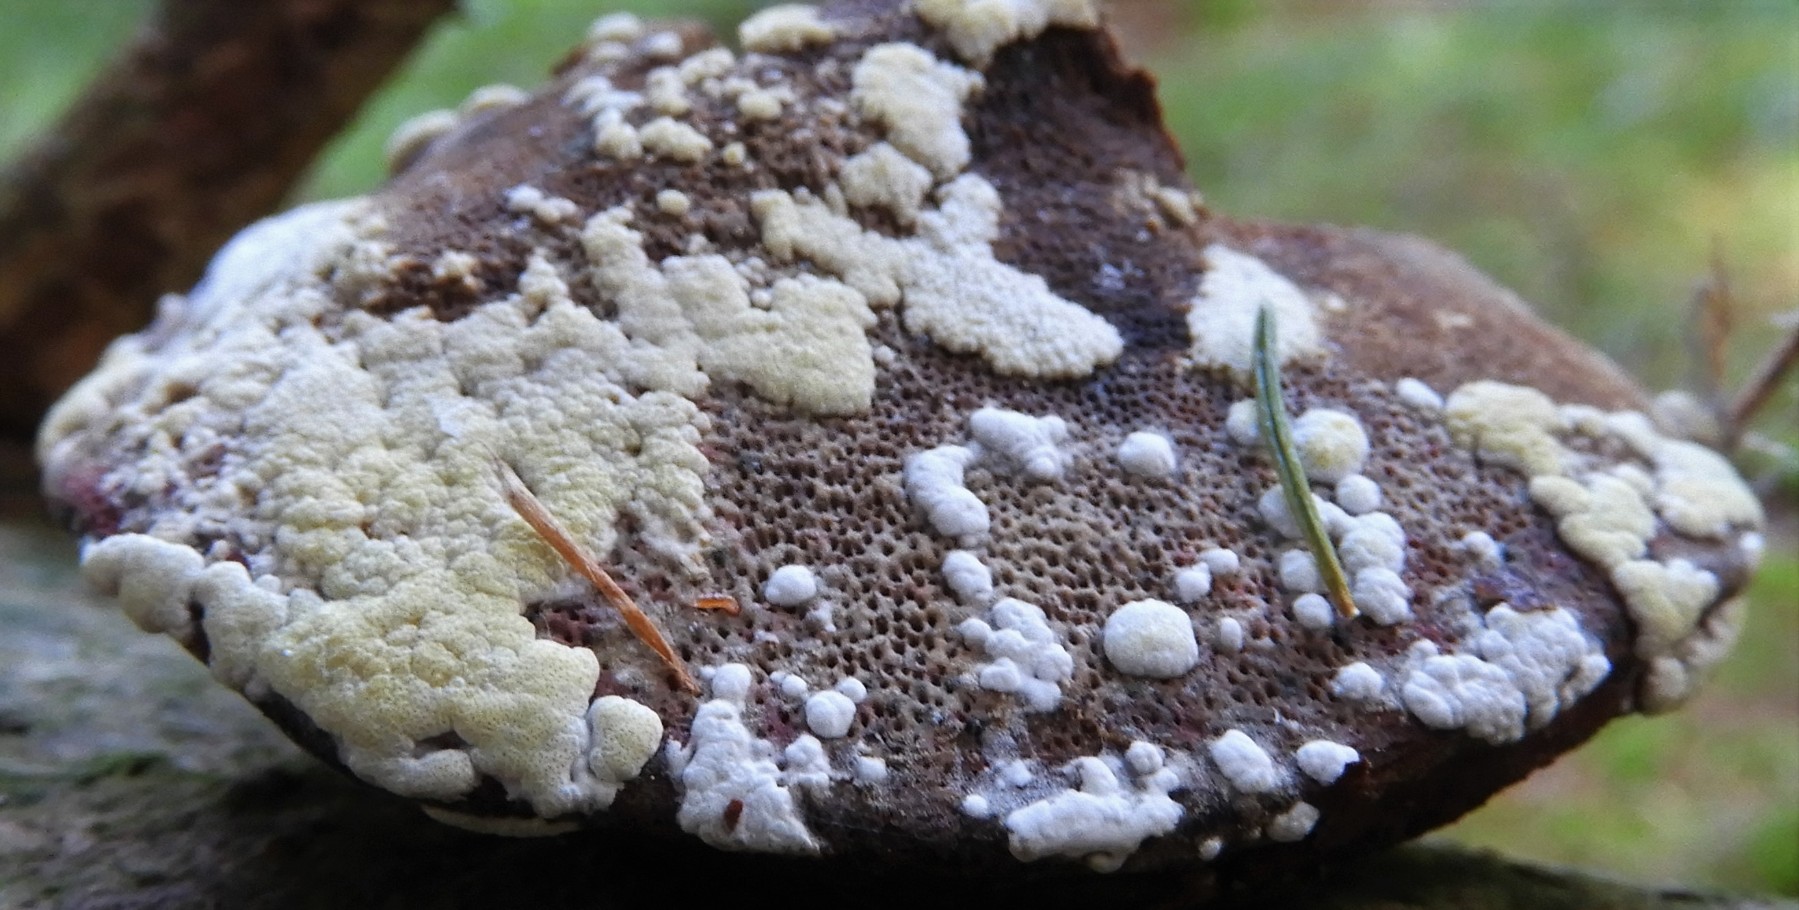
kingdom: Fungi
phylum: Ascomycota
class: Sordariomycetes
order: Hypocreales
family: Hypocreaceae
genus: Trichoderma
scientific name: Trichoderma pulvinatum
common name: snyltende kødkerne
